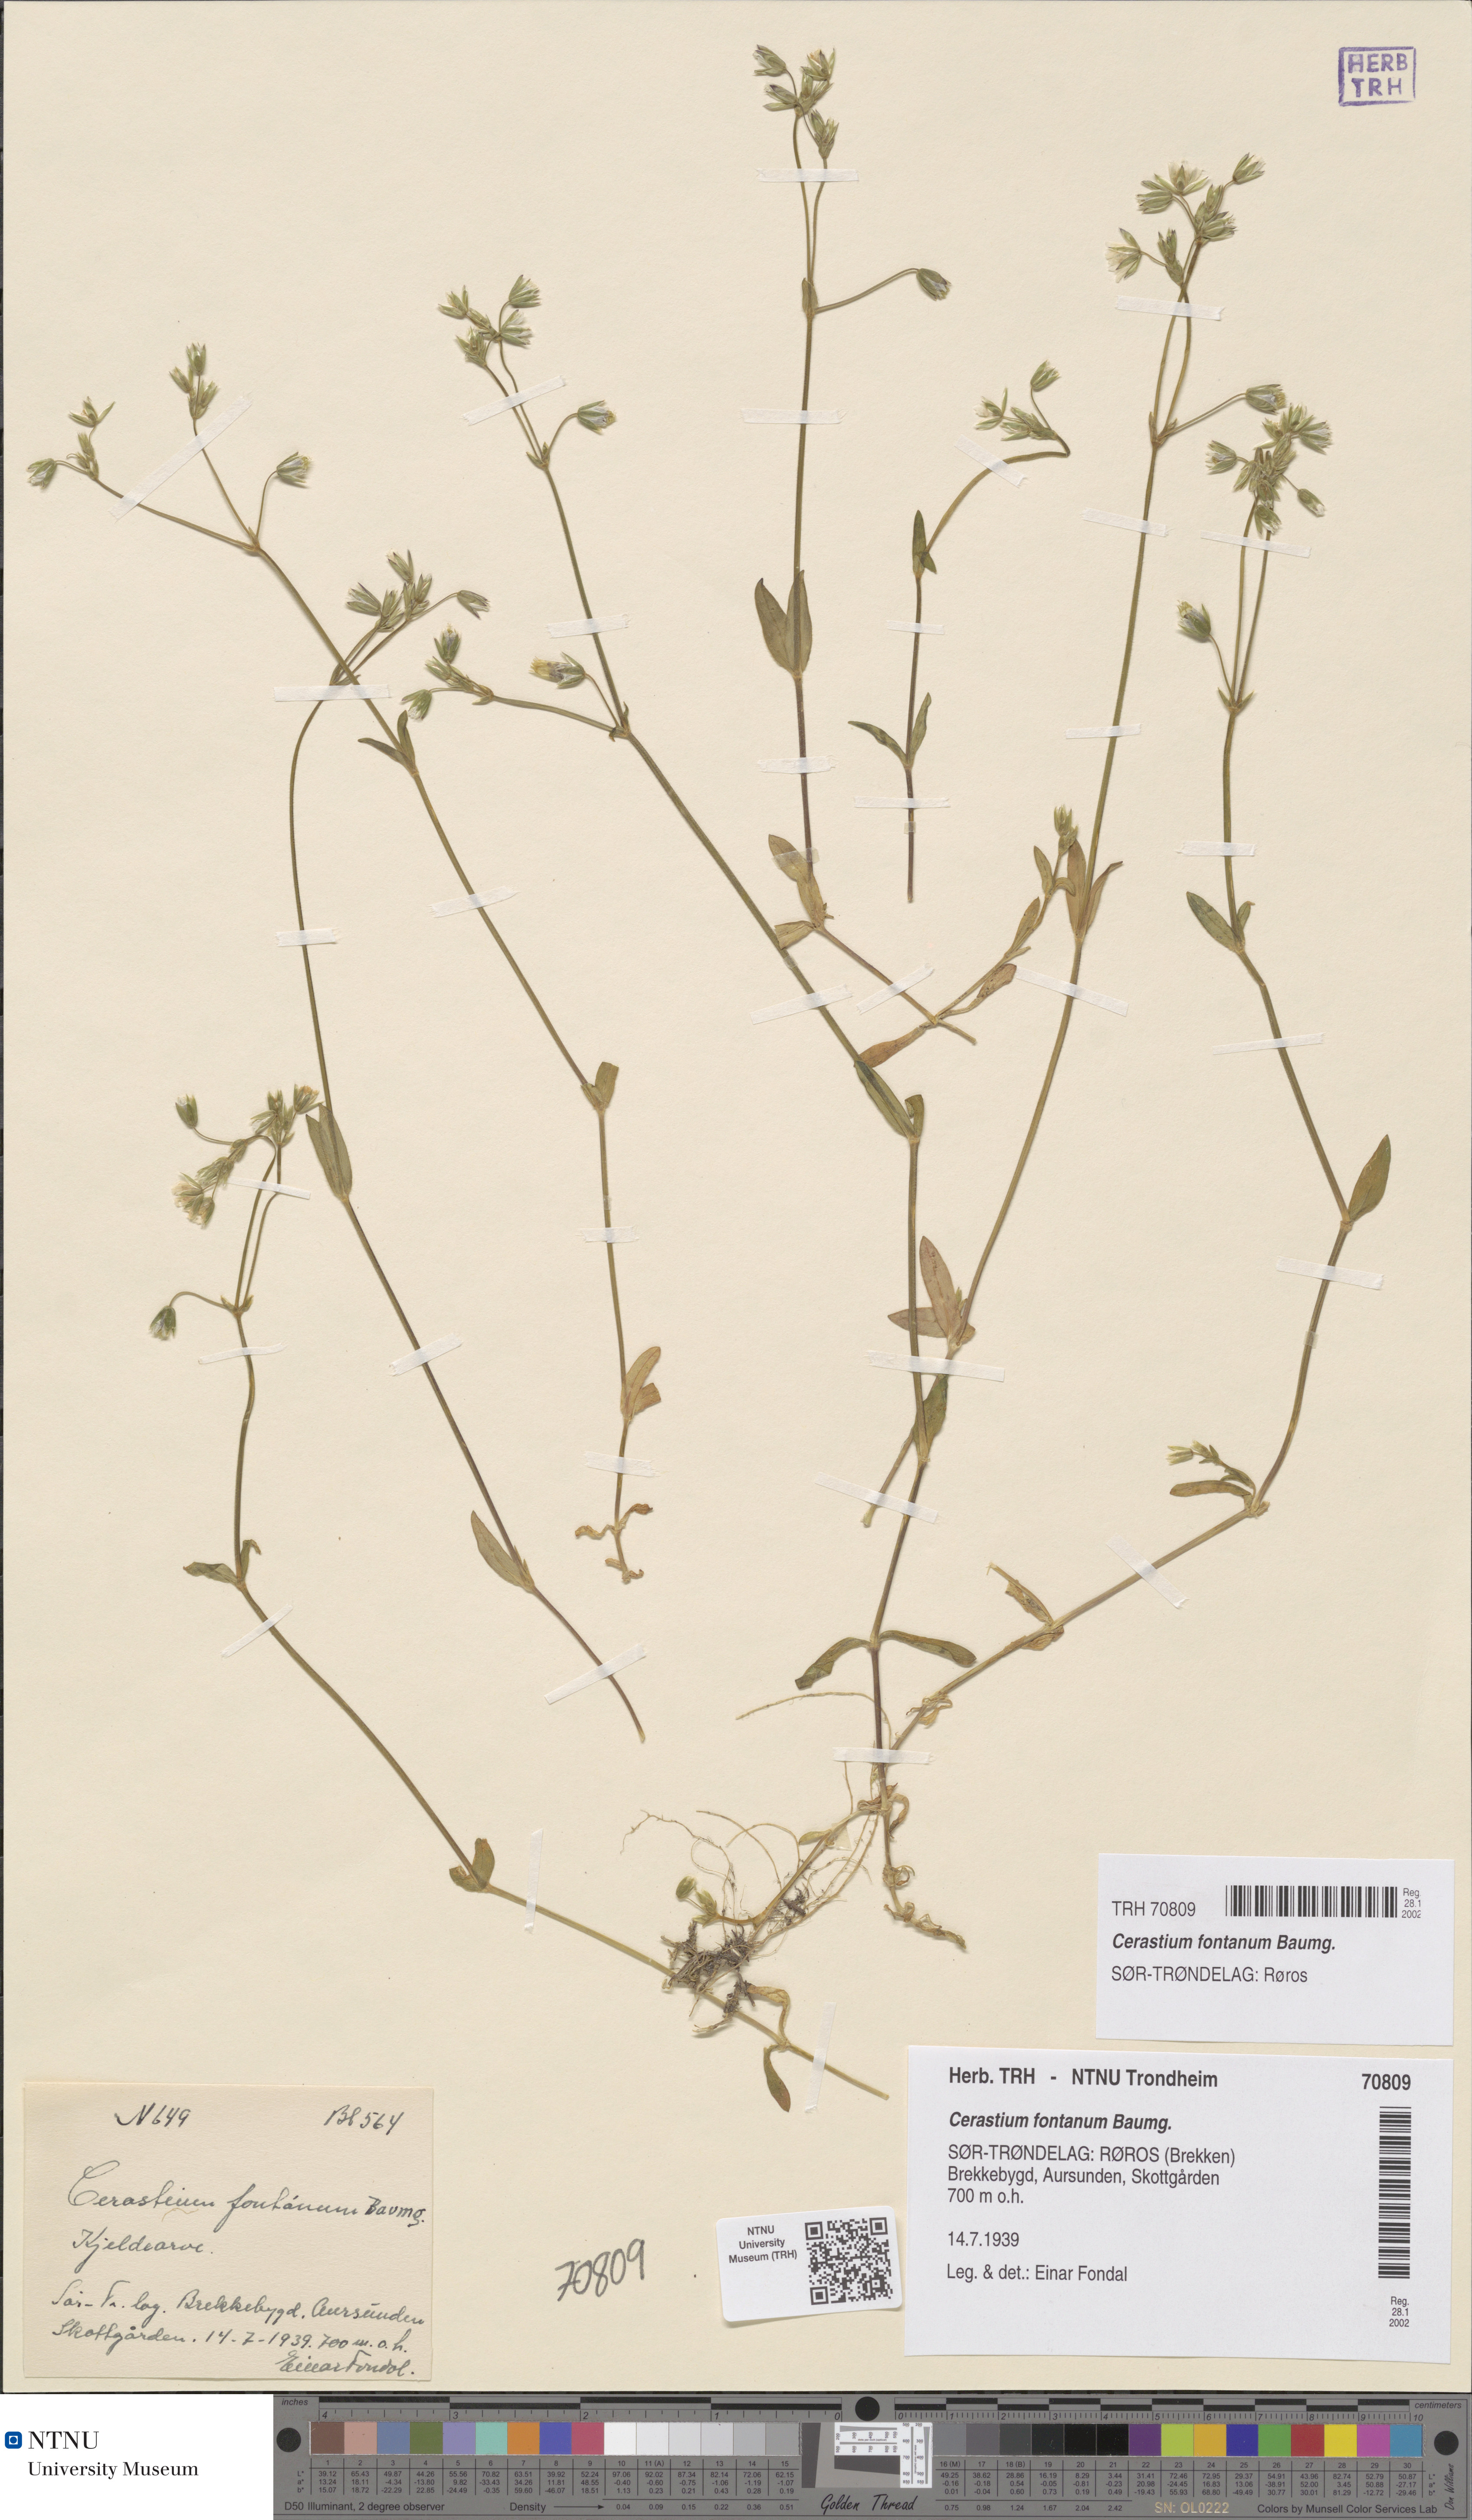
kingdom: Plantae
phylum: Tracheophyta
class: Magnoliopsida
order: Caryophyllales
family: Caryophyllaceae
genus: Cerastium
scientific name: Cerastium fontanum
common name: Common mouse-ear
